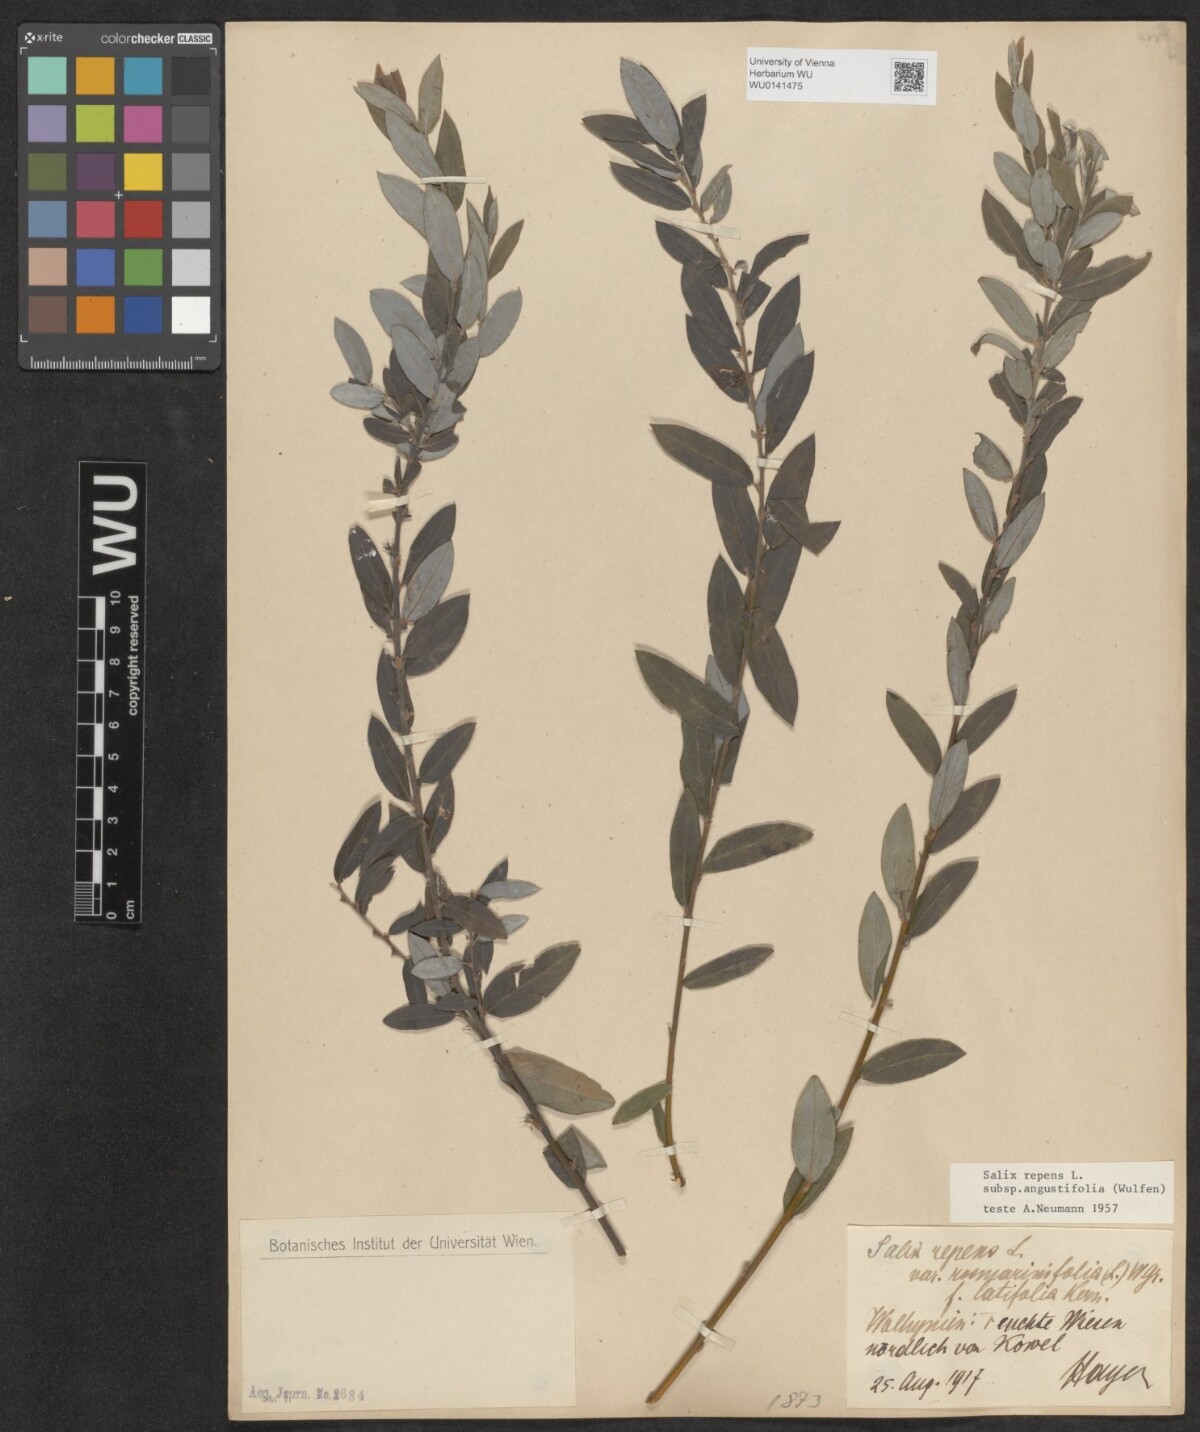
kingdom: Plantae
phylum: Tracheophyta
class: Magnoliopsida
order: Malpighiales
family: Salicaceae
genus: Salix
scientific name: Salix rosmarinifolia
